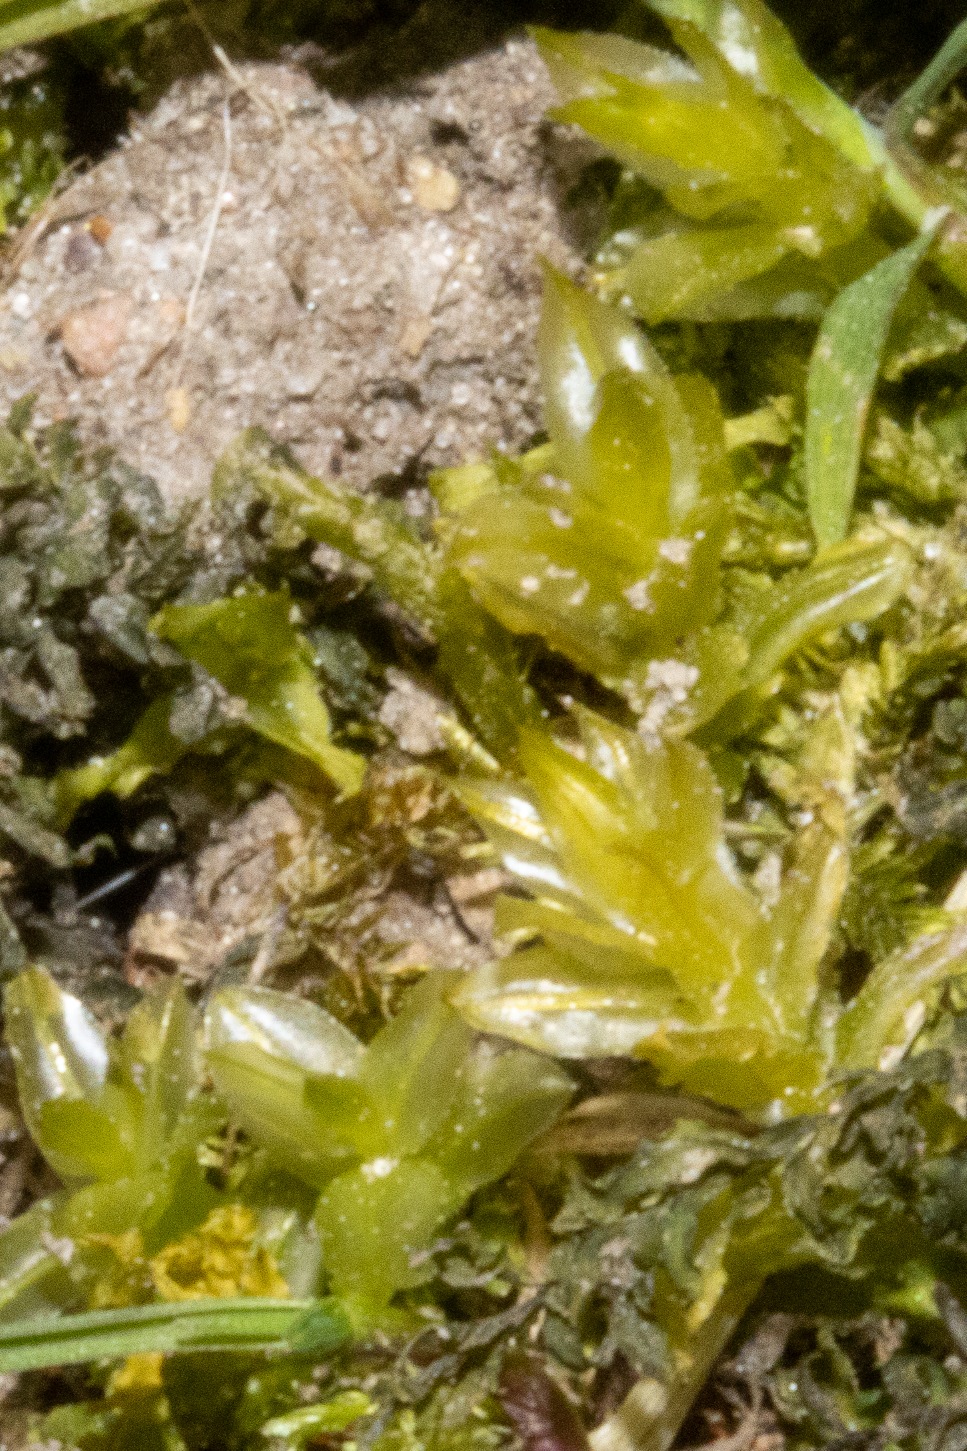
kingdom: Plantae
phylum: Bryophyta
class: Bryopsida
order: Bryales
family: Mniaceae
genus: Plagiomnium
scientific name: Plagiomnium undulatum
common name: Bølget krybstjerne
